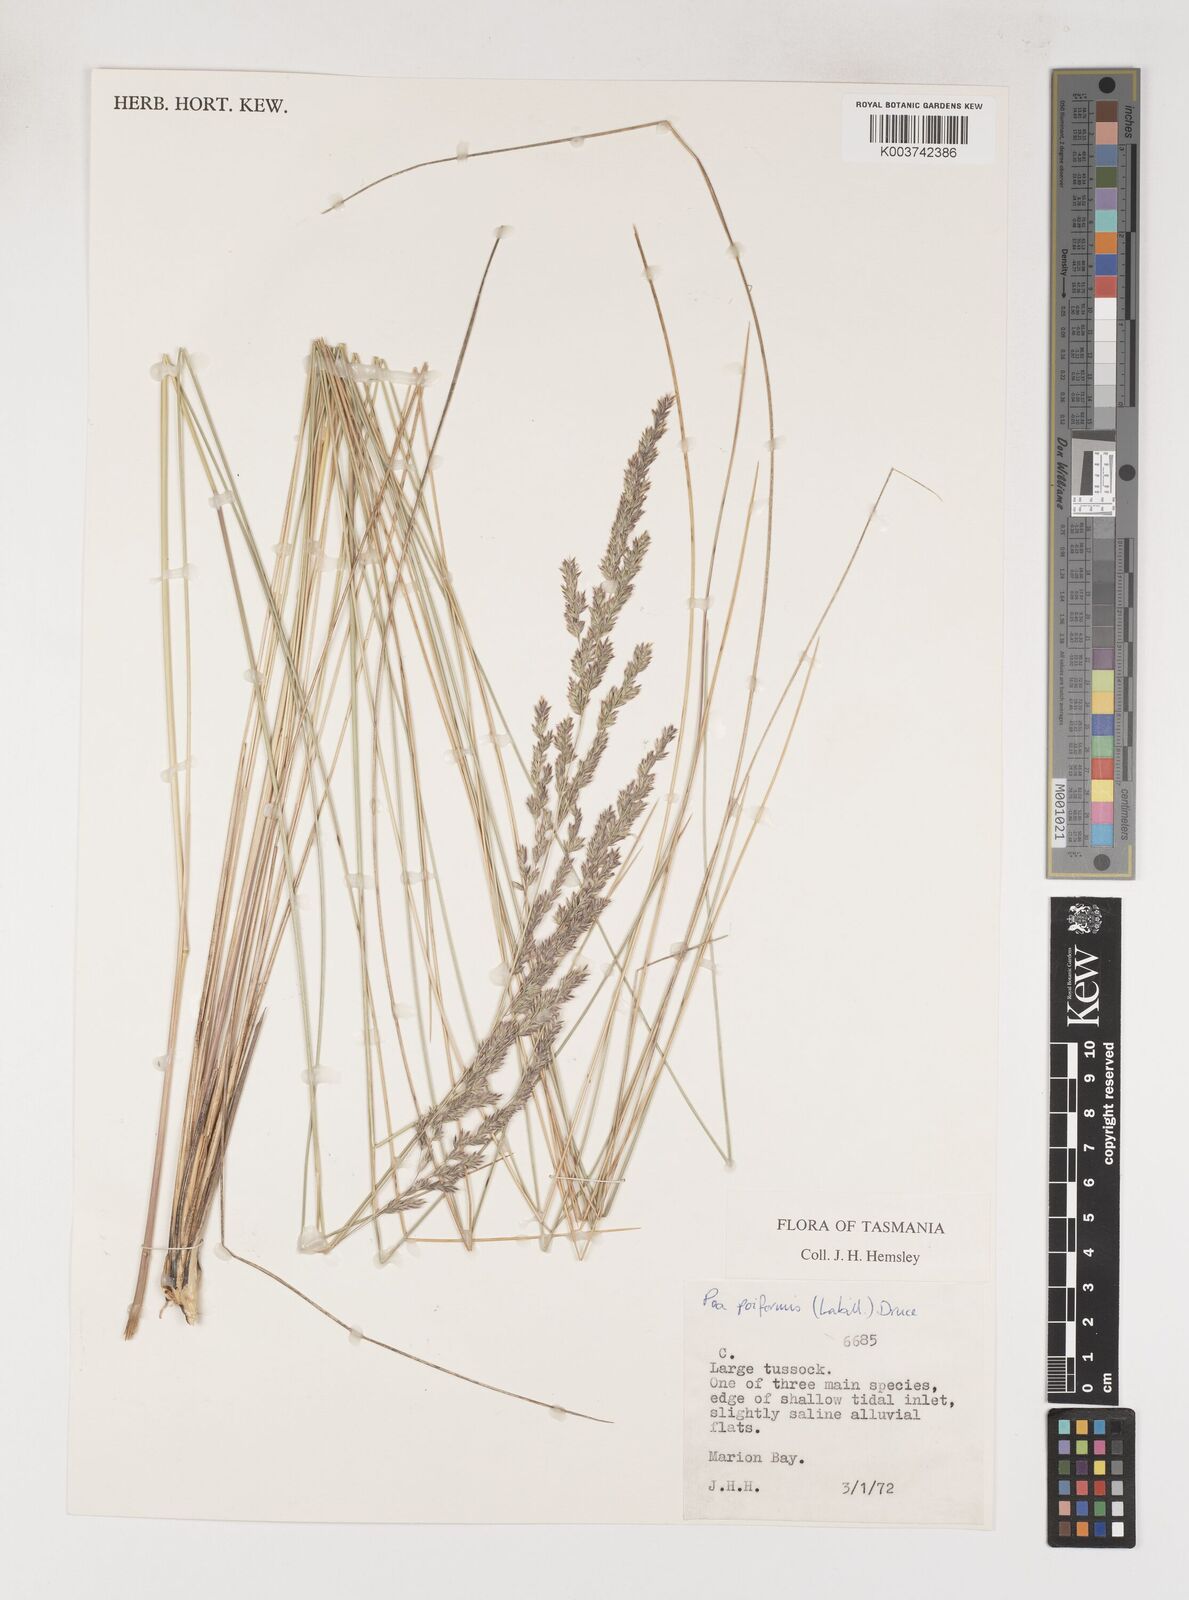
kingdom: Plantae
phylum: Tracheophyta
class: Liliopsida
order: Poales
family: Poaceae
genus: Poa
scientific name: Poa poiformis
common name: Tussock poa
